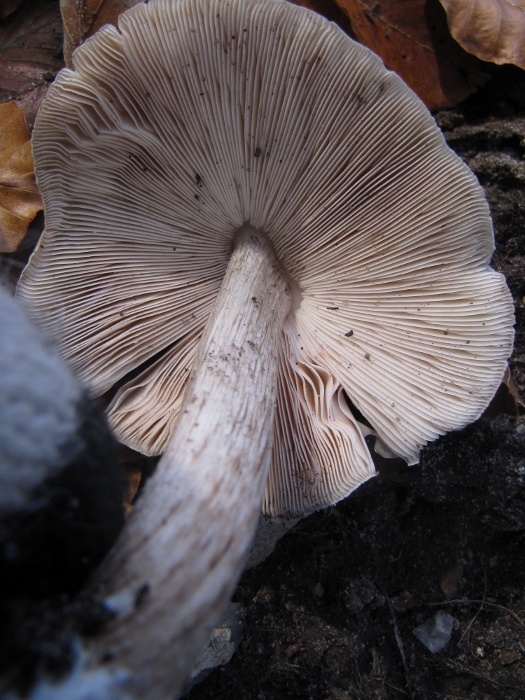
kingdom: Fungi
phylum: Basidiomycota
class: Agaricomycetes
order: Agaricales
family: Pluteaceae
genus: Pluteus
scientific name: Pluteus cervinus
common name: sodfarvet skærmhat
